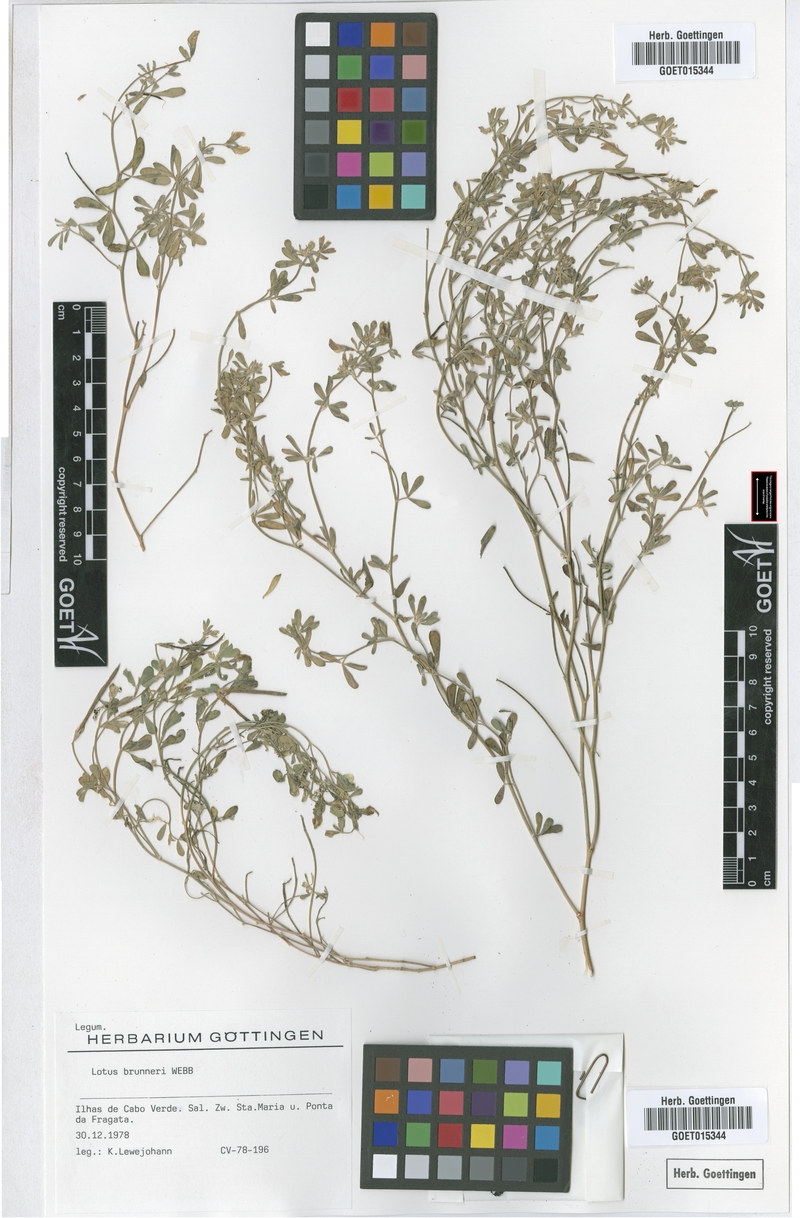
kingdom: Plantae
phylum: Tracheophyta
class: Magnoliopsida
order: Fabales
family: Fabaceae
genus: Lotus
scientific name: Lotus brunneri
